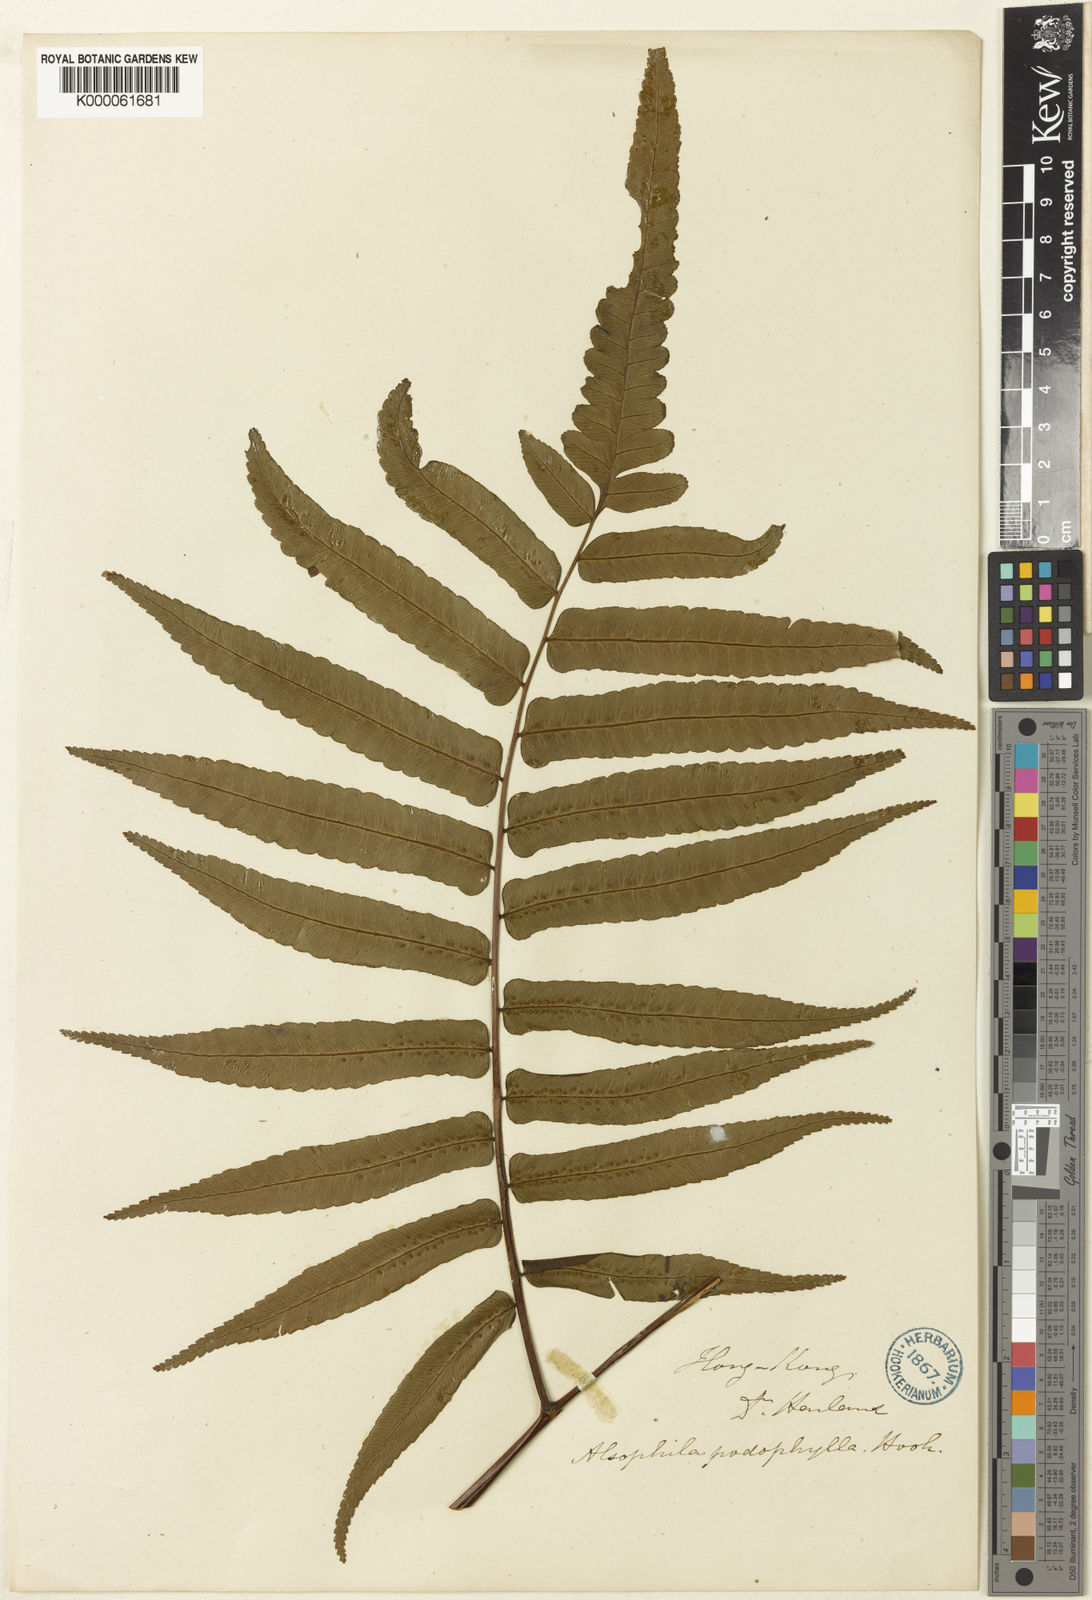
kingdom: Plantae
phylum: Tracheophyta
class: Polypodiopsida
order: Cyatheales
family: Cyatheaceae
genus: Gymnosphaera
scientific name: Gymnosphaera podophylla
